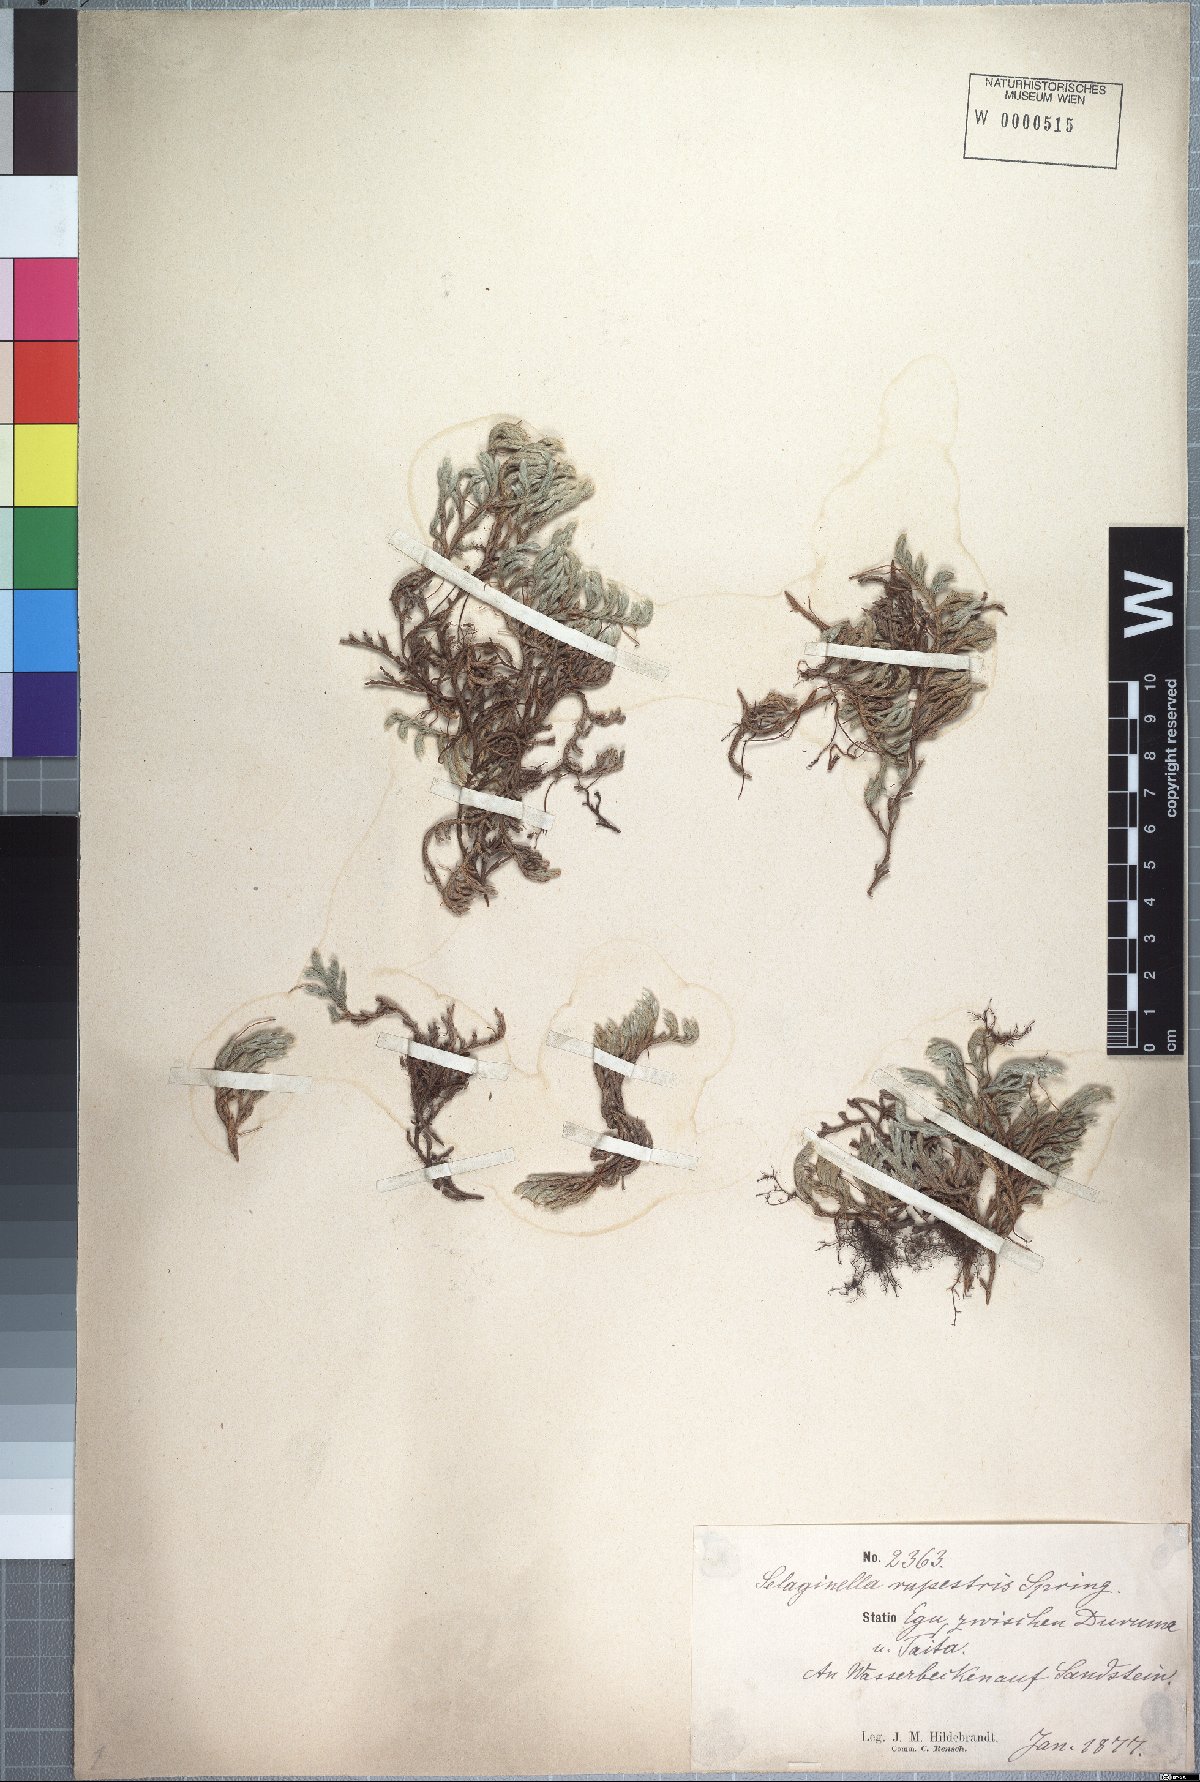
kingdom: Plantae
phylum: Tracheophyta
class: Lycopodiopsida
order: Selaginellales
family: Selaginellaceae
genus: Selaginella
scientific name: Selaginella dregei
